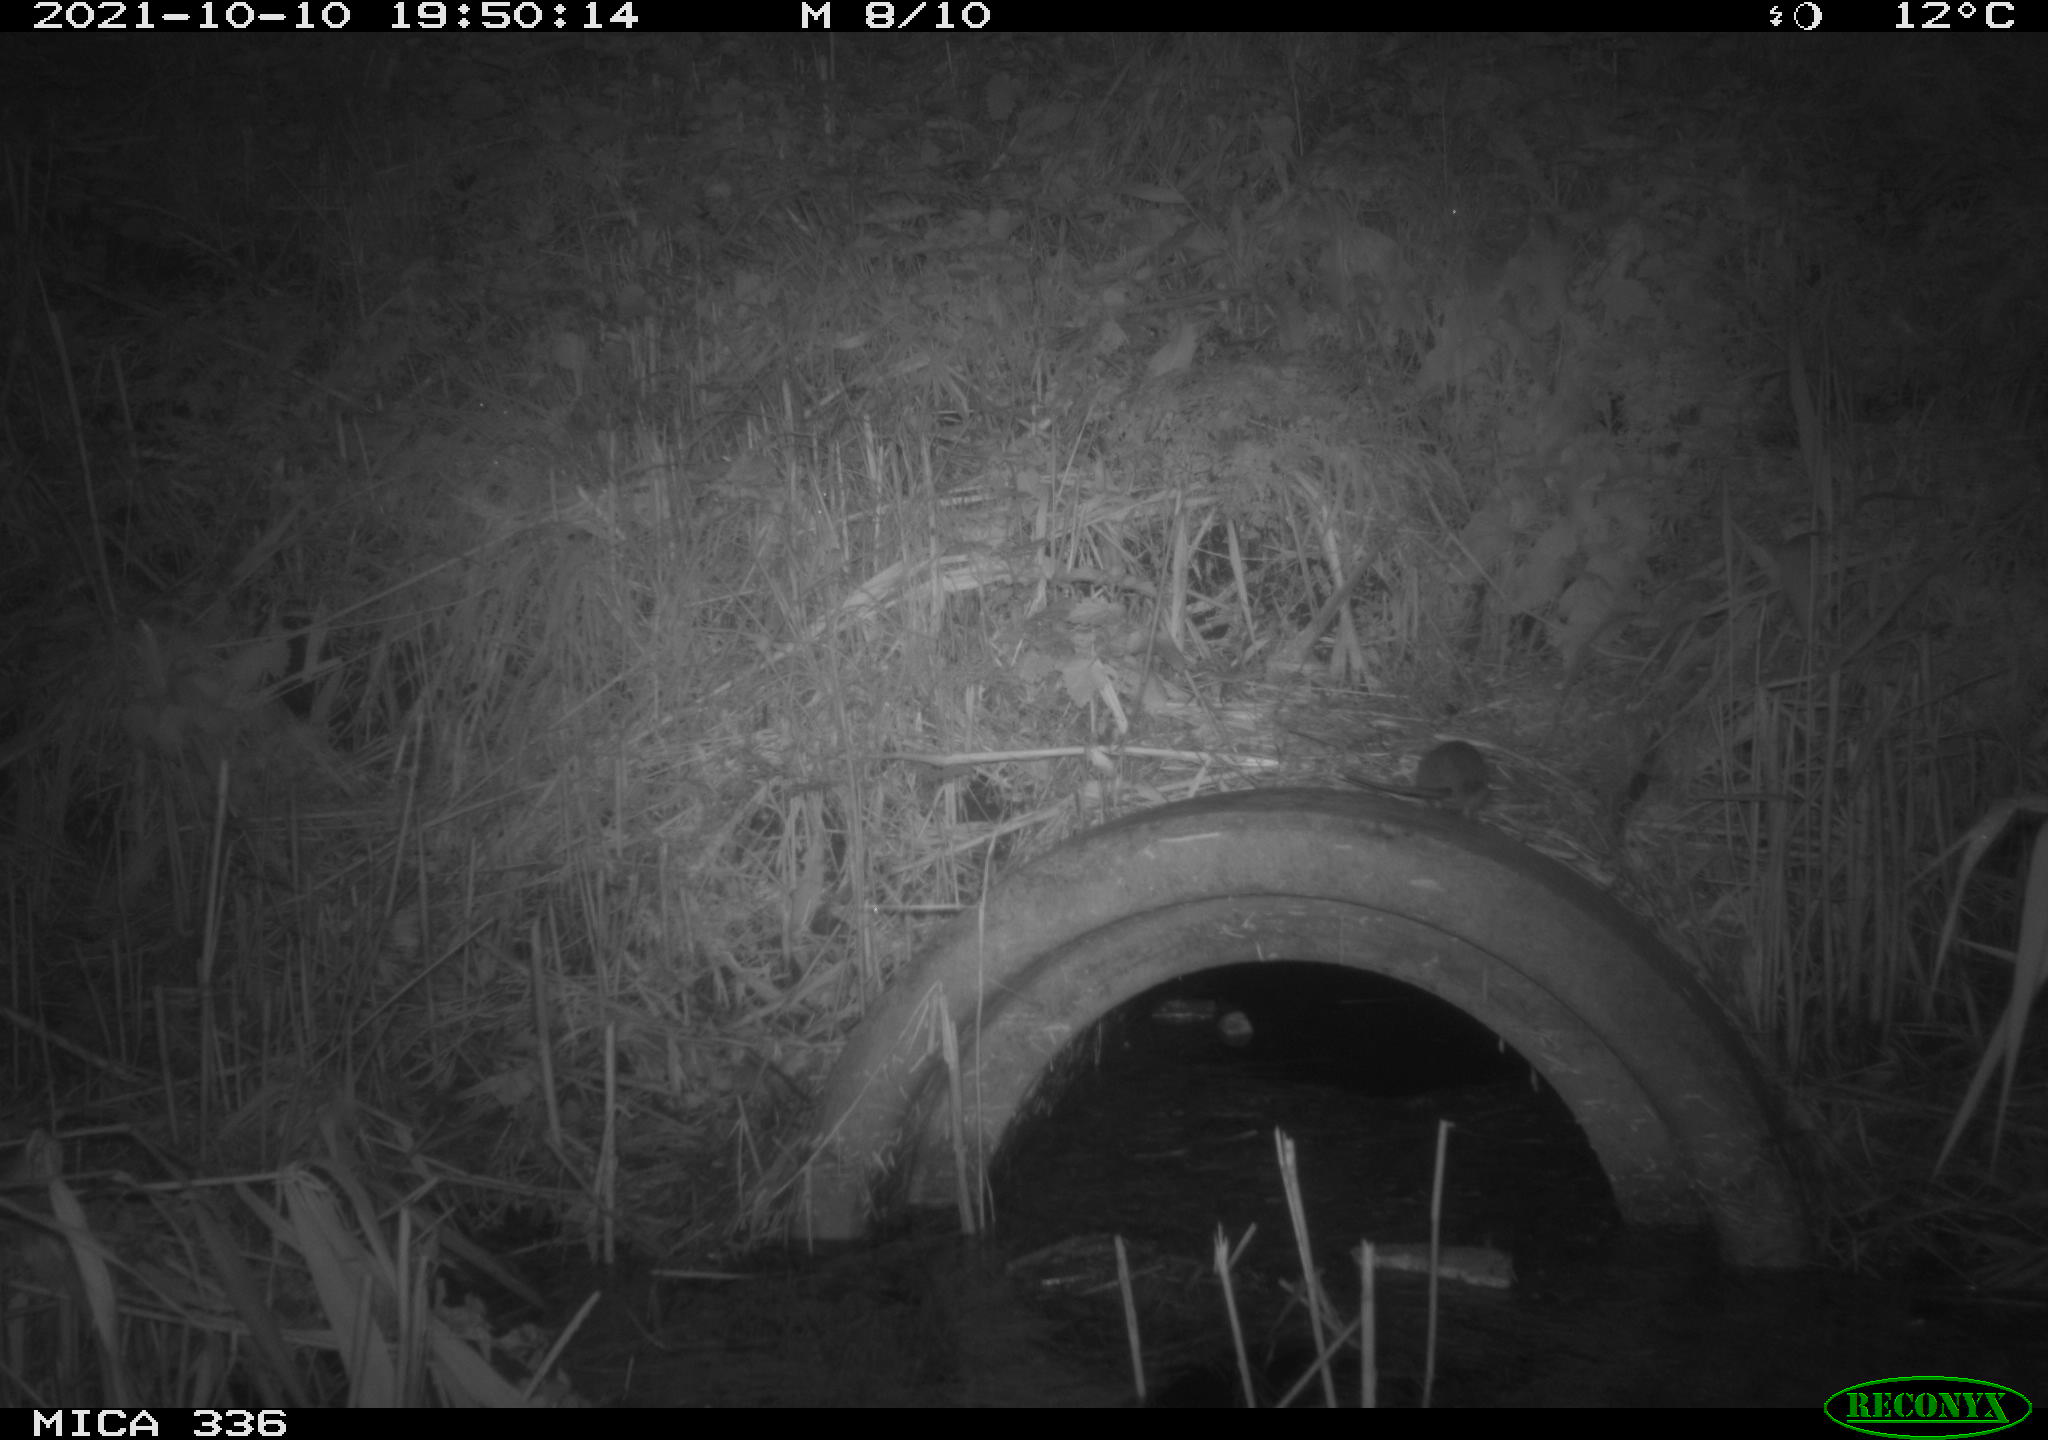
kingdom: Animalia
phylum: Chordata
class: Mammalia
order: Rodentia
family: Muridae
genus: Rattus
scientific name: Rattus norvegicus
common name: Brown rat
